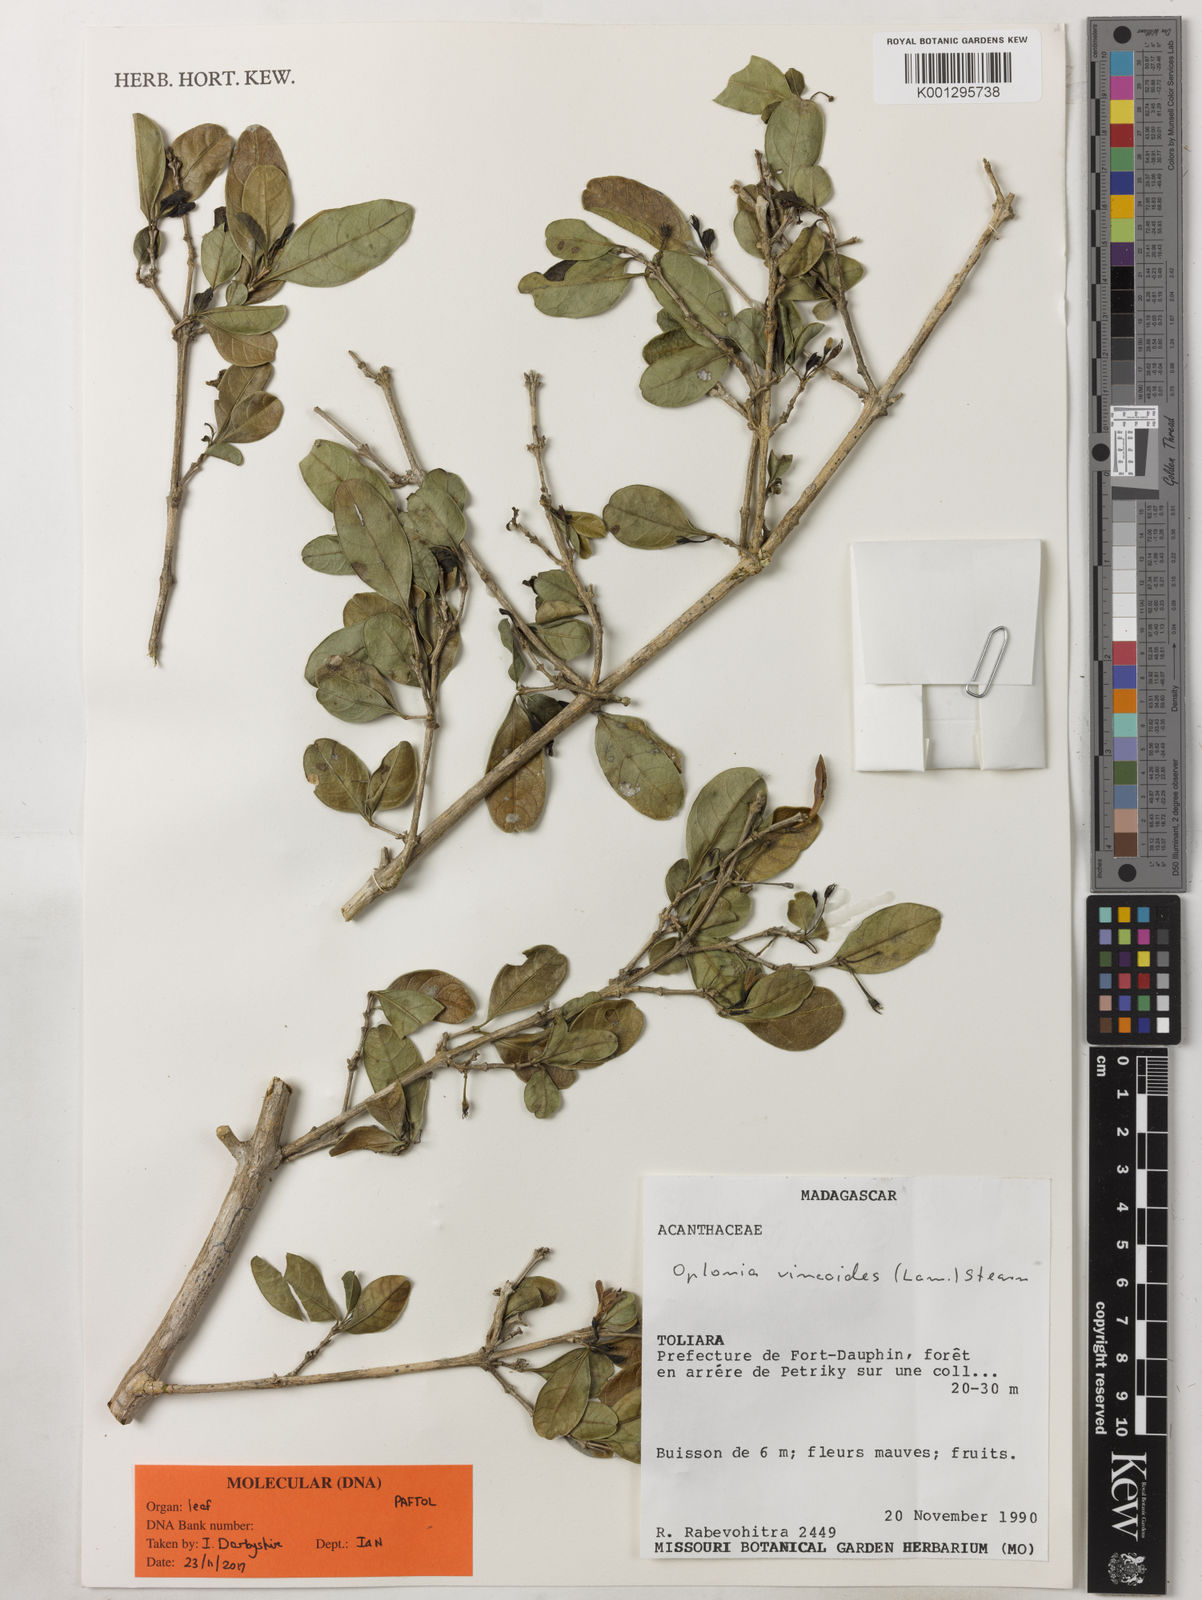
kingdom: Plantae
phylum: Tracheophyta
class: Magnoliopsida
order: Lamiales
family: Acanthaceae
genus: Oplonia
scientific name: Oplonia vincoides
